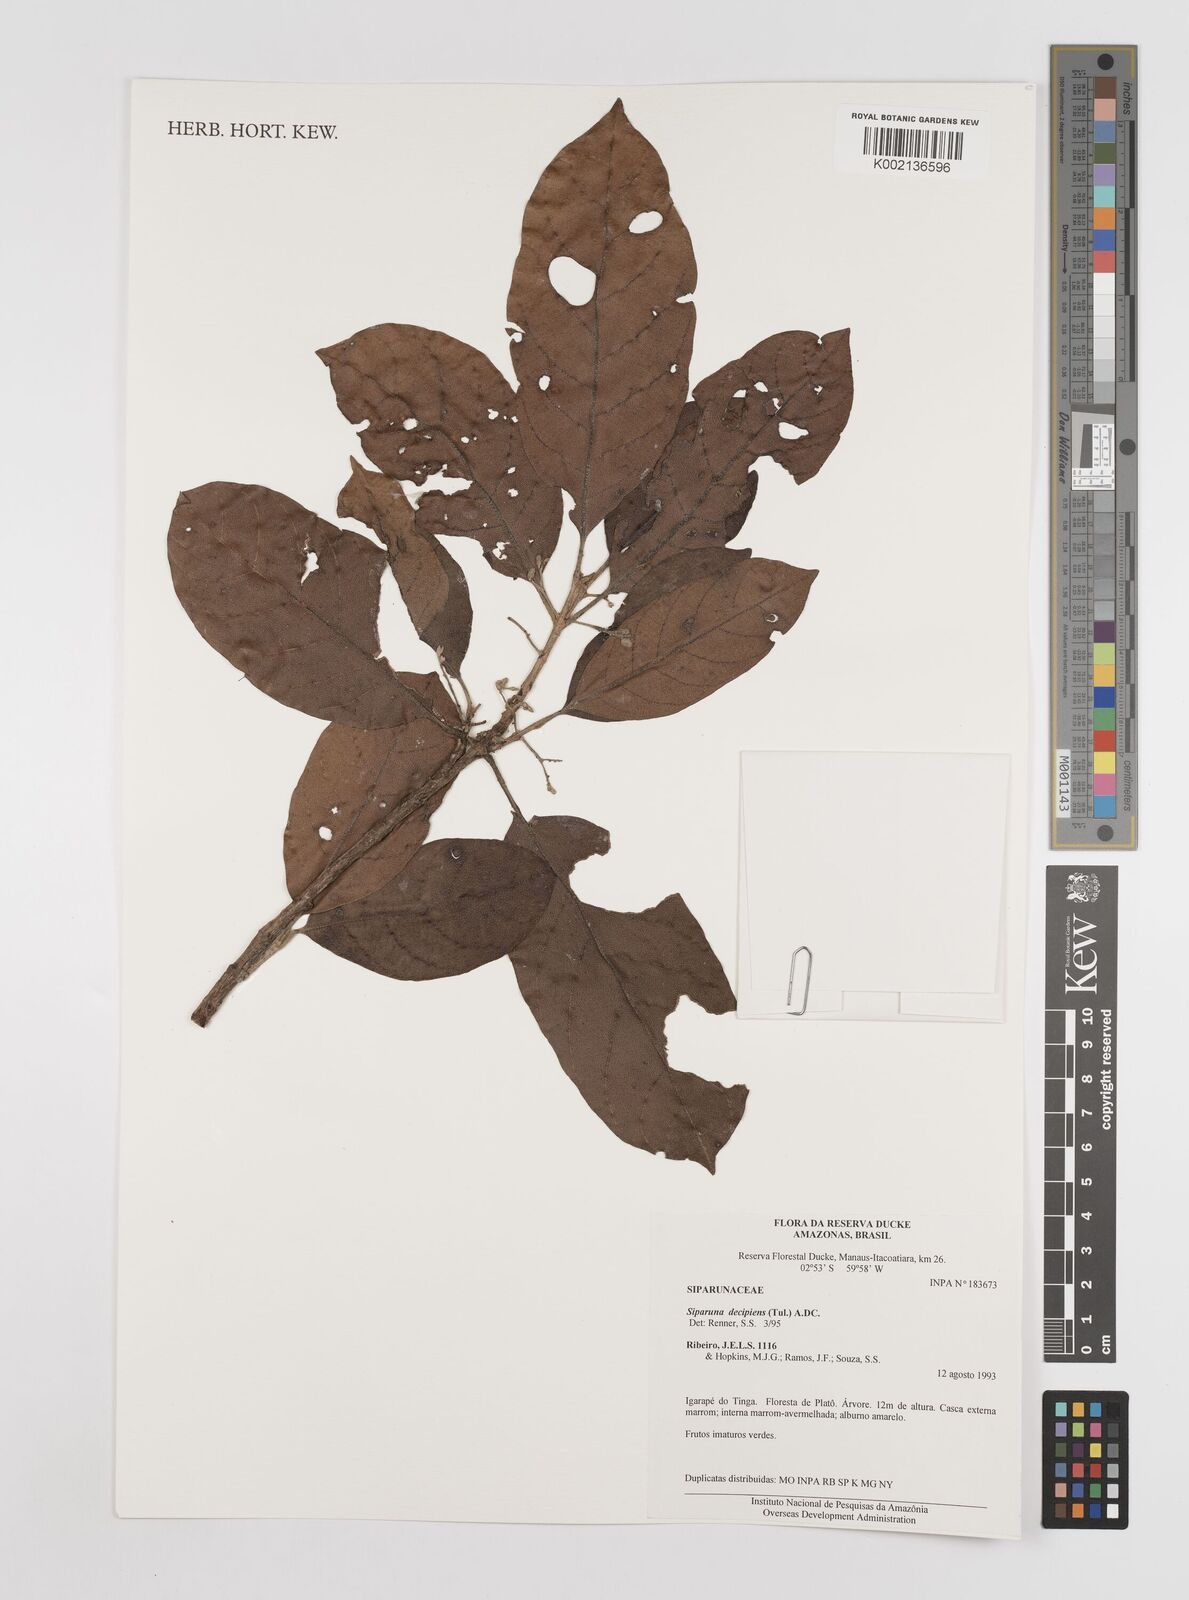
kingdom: Plantae
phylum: Tracheophyta
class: Magnoliopsida
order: Laurales
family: Siparunaceae
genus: Siparuna
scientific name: Siparuna decipiens
